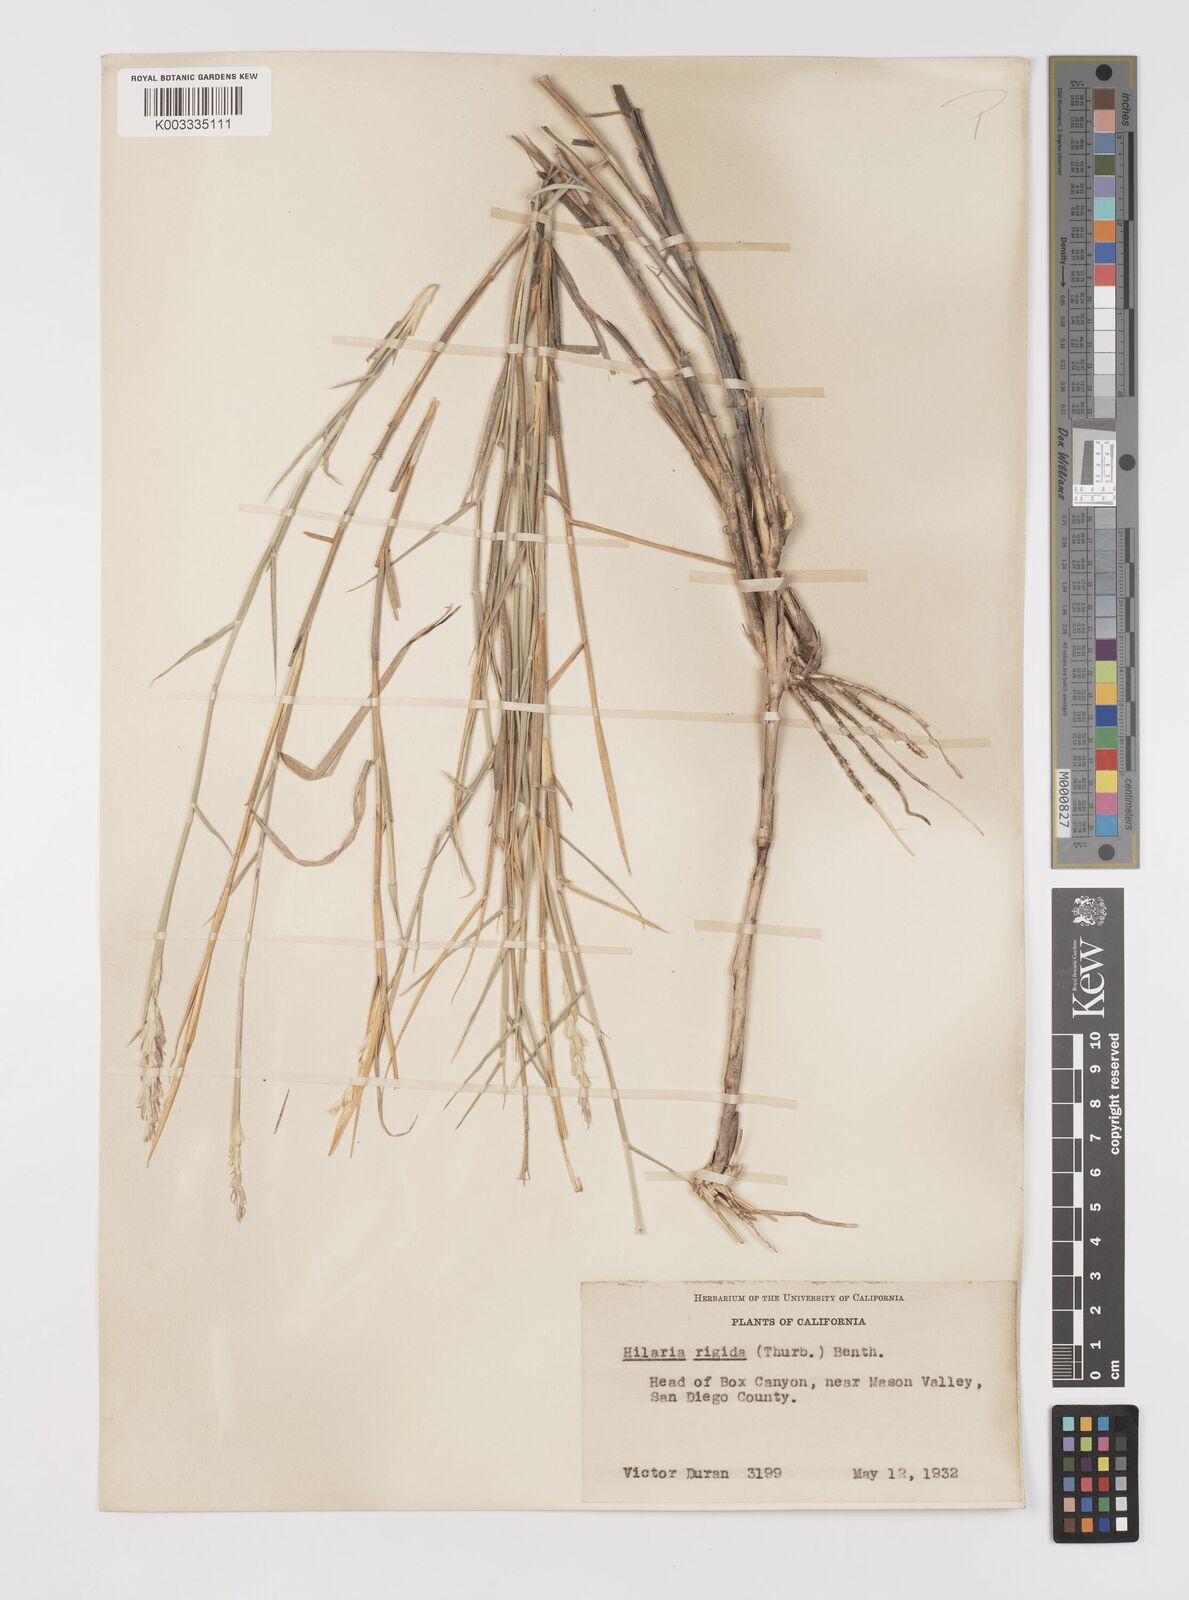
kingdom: Plantae
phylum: Tracheophyta
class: Liliopsida
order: Poales
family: Poaceae
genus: Hilaria
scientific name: Hilaria rigida
